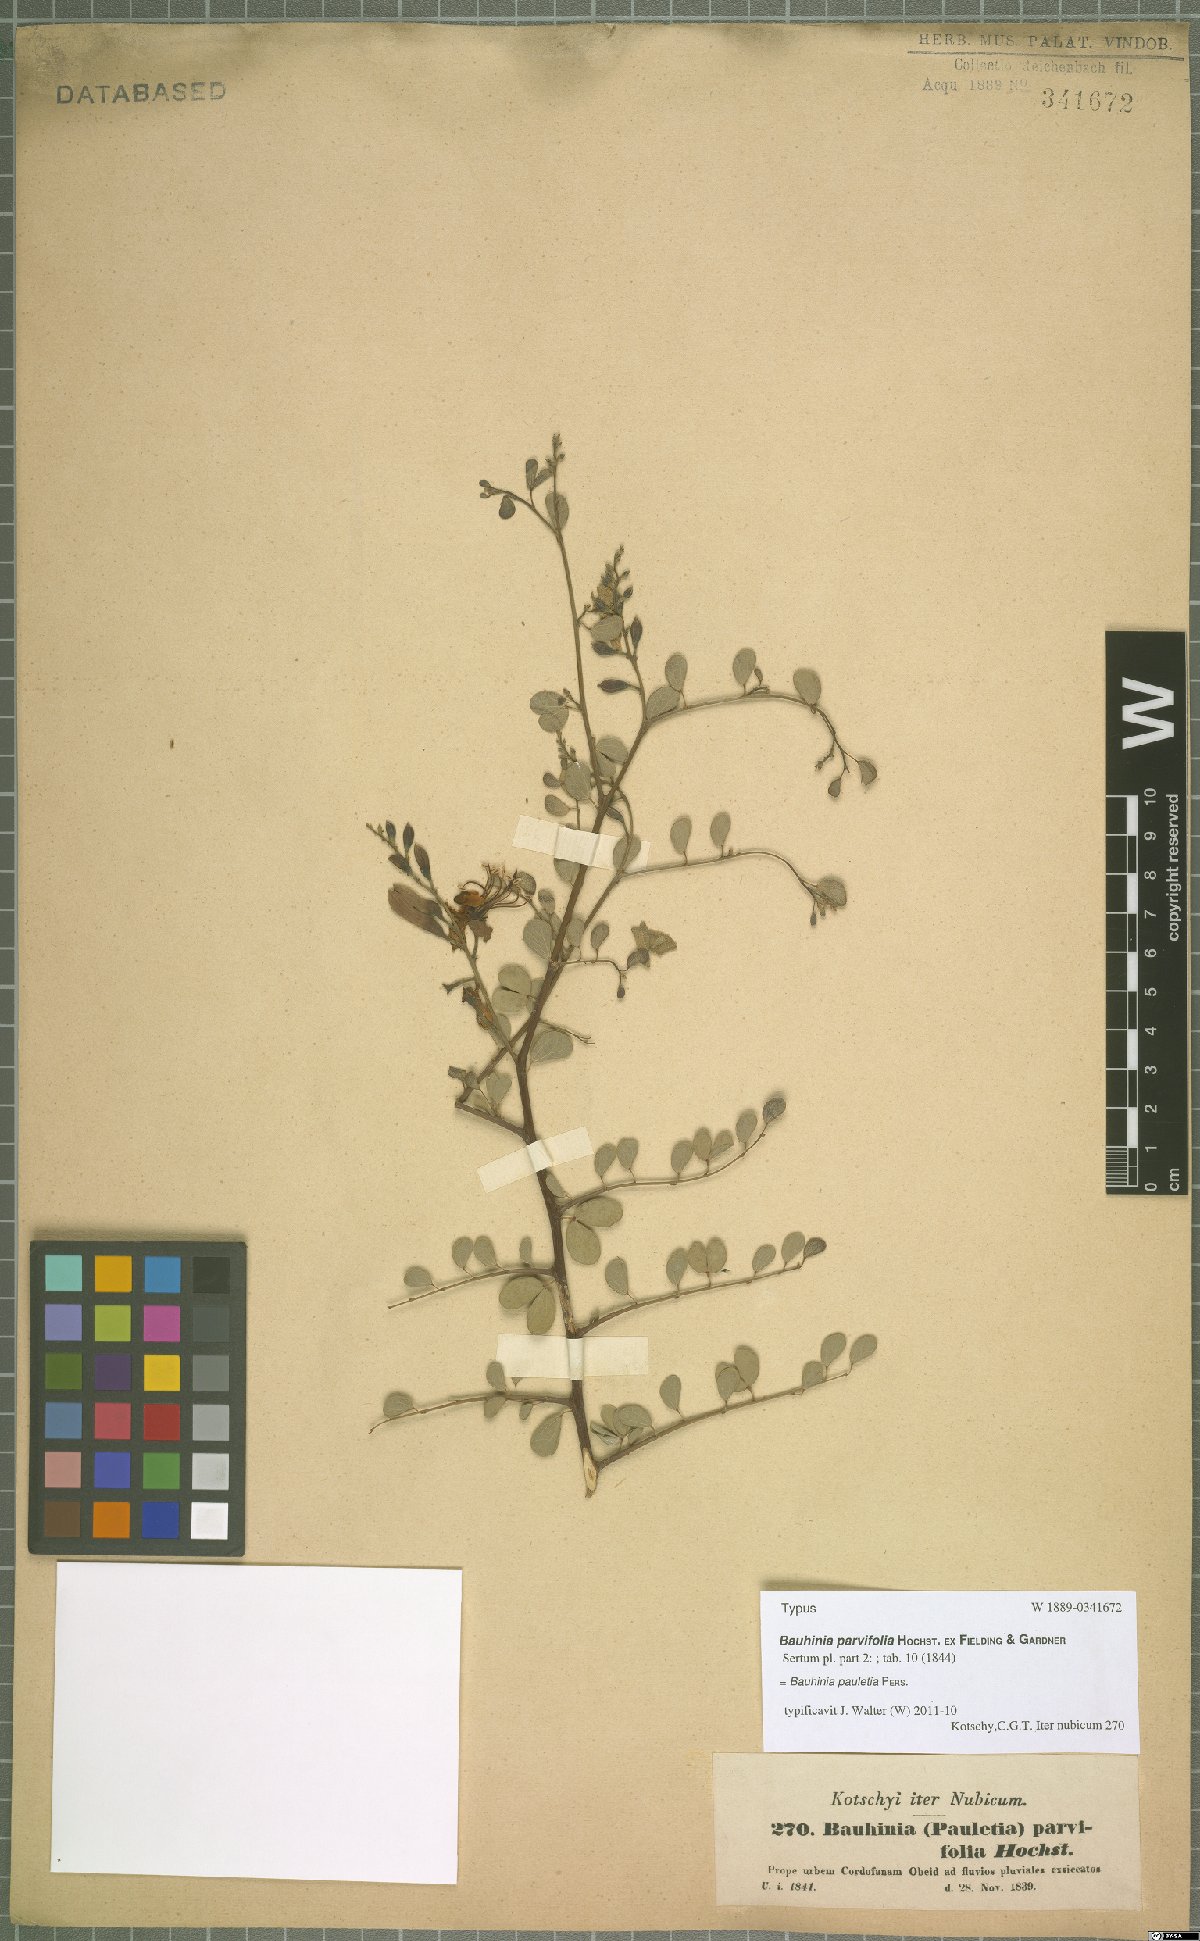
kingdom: Plantae
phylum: Tracheophyta
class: Magnoliopsida
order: Fabales
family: Fabaceae
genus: Bauhinia
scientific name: Bauhinia pauletia
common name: Railway-fence bauhinia
